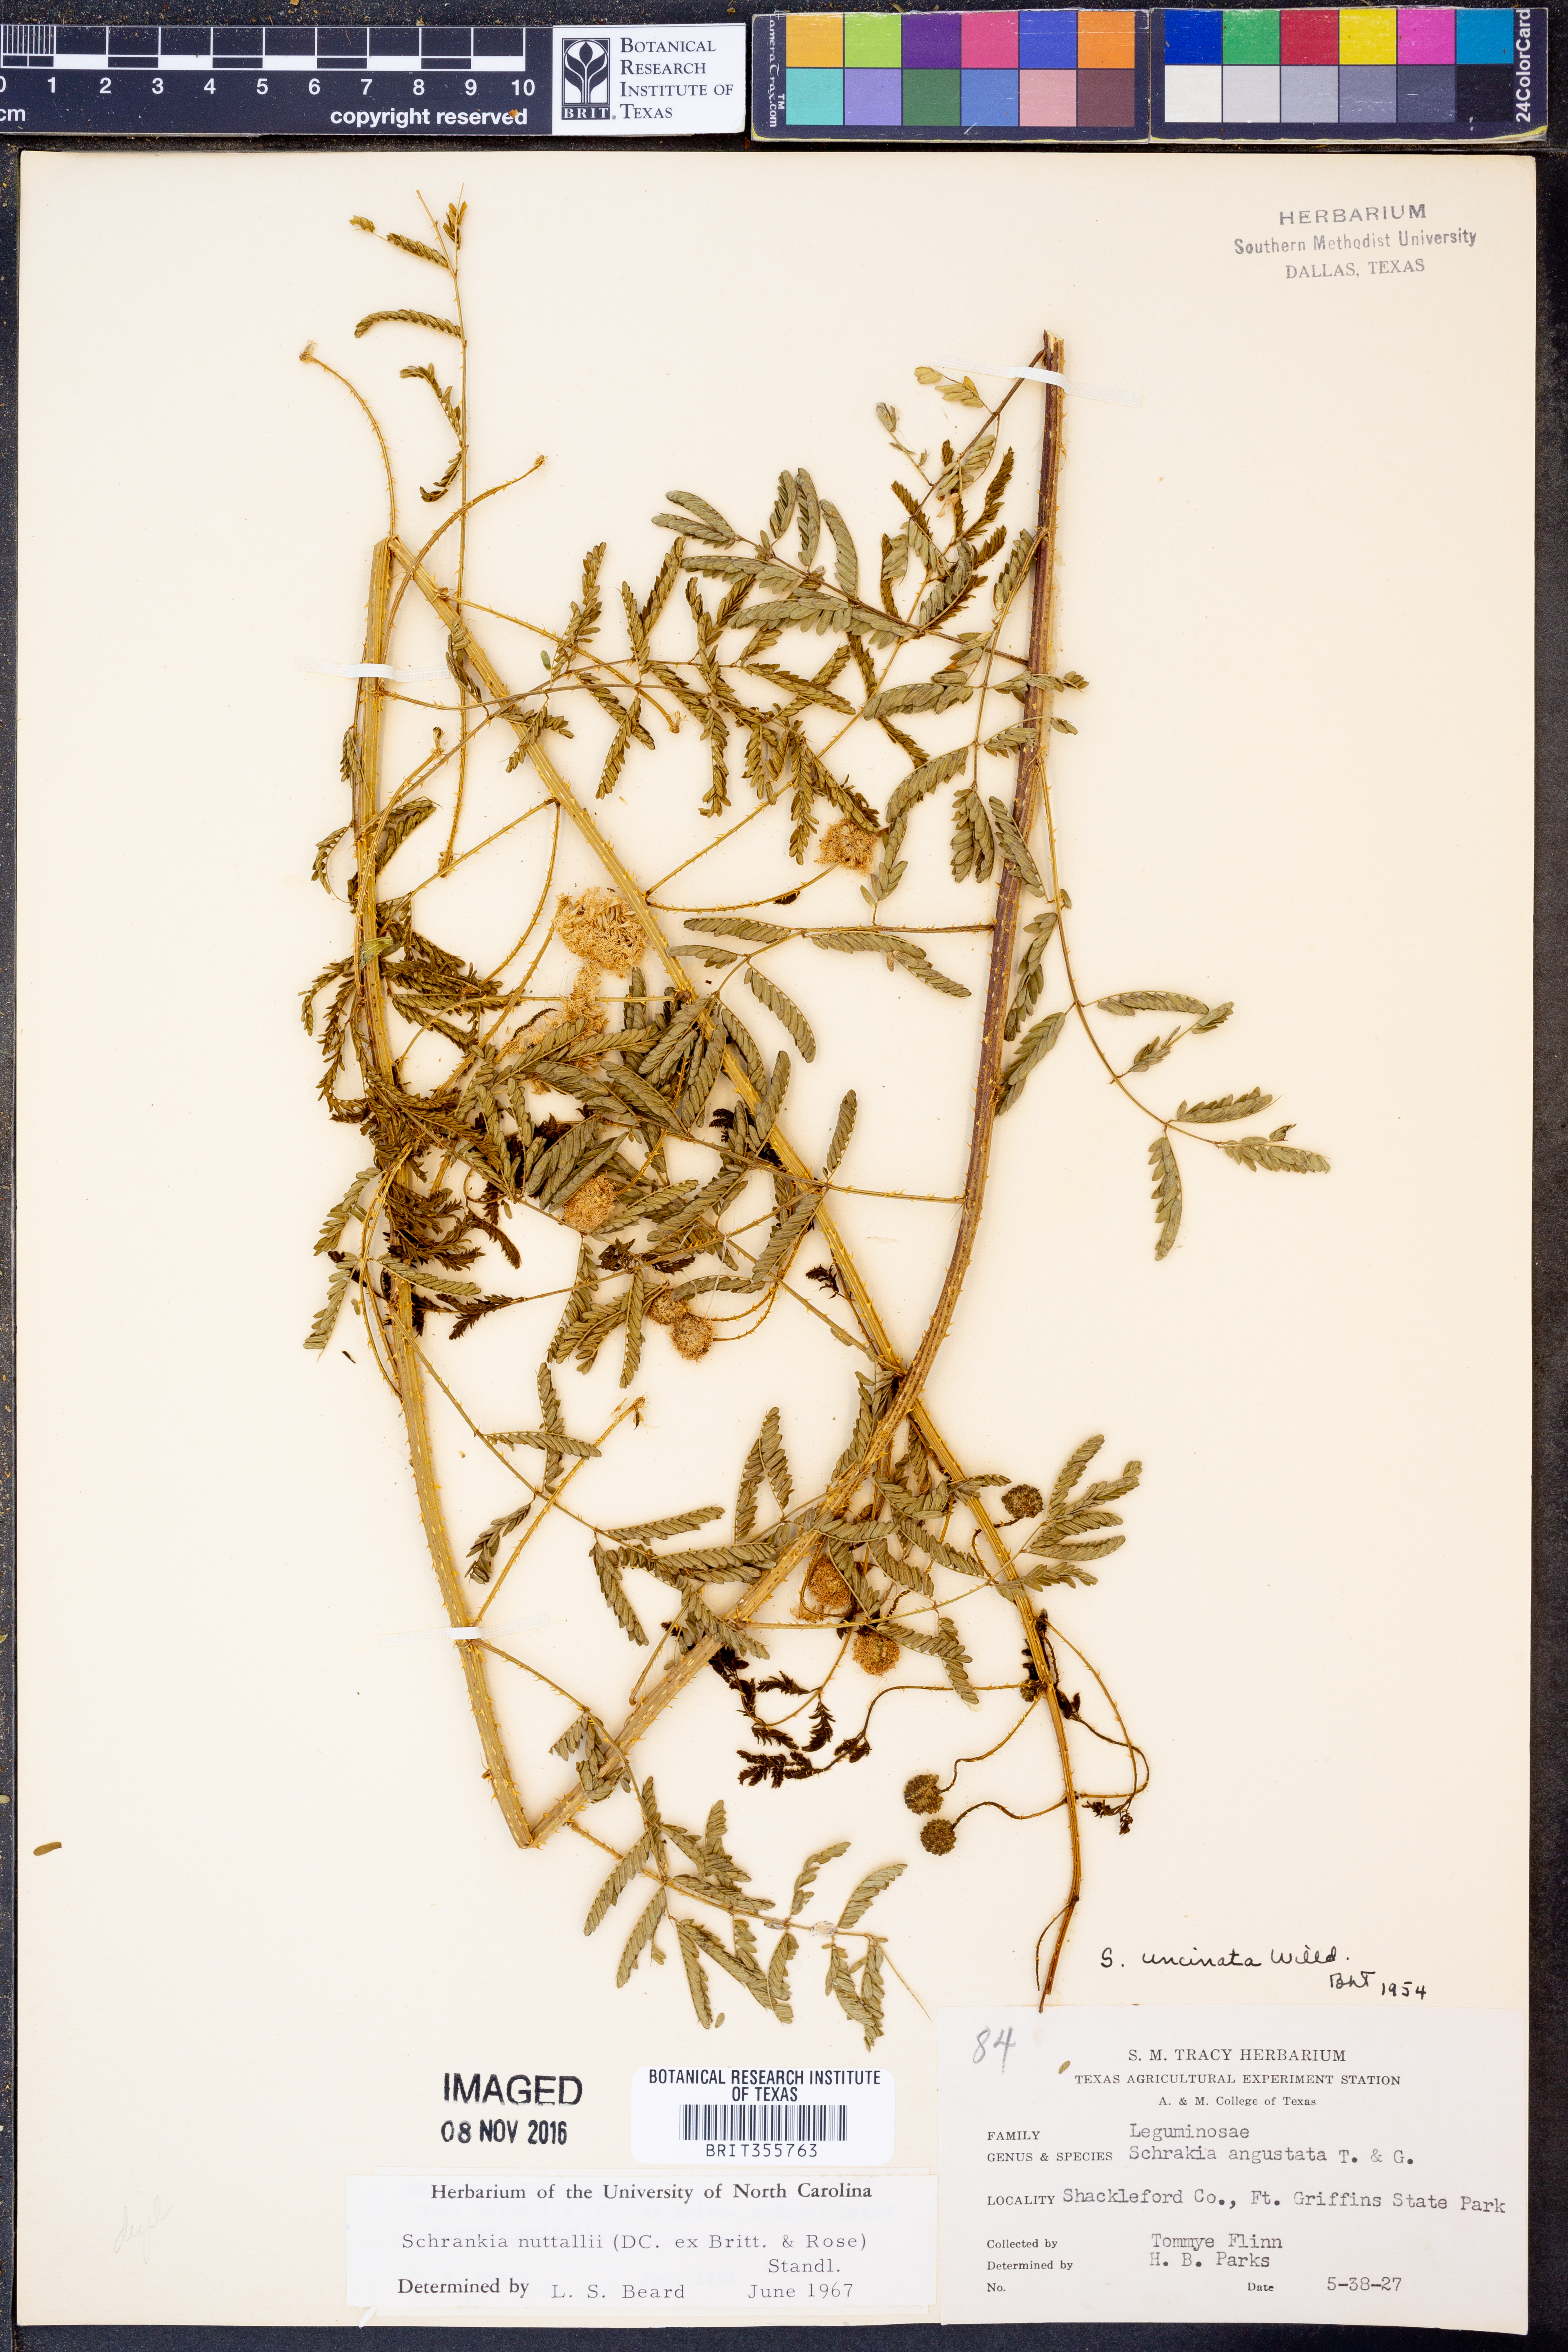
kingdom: Plantae
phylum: Tracheophyta
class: Magnoliopsida
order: Fabales
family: Fabaceae
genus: Mimosa
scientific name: Mimosa quadrivalvis
